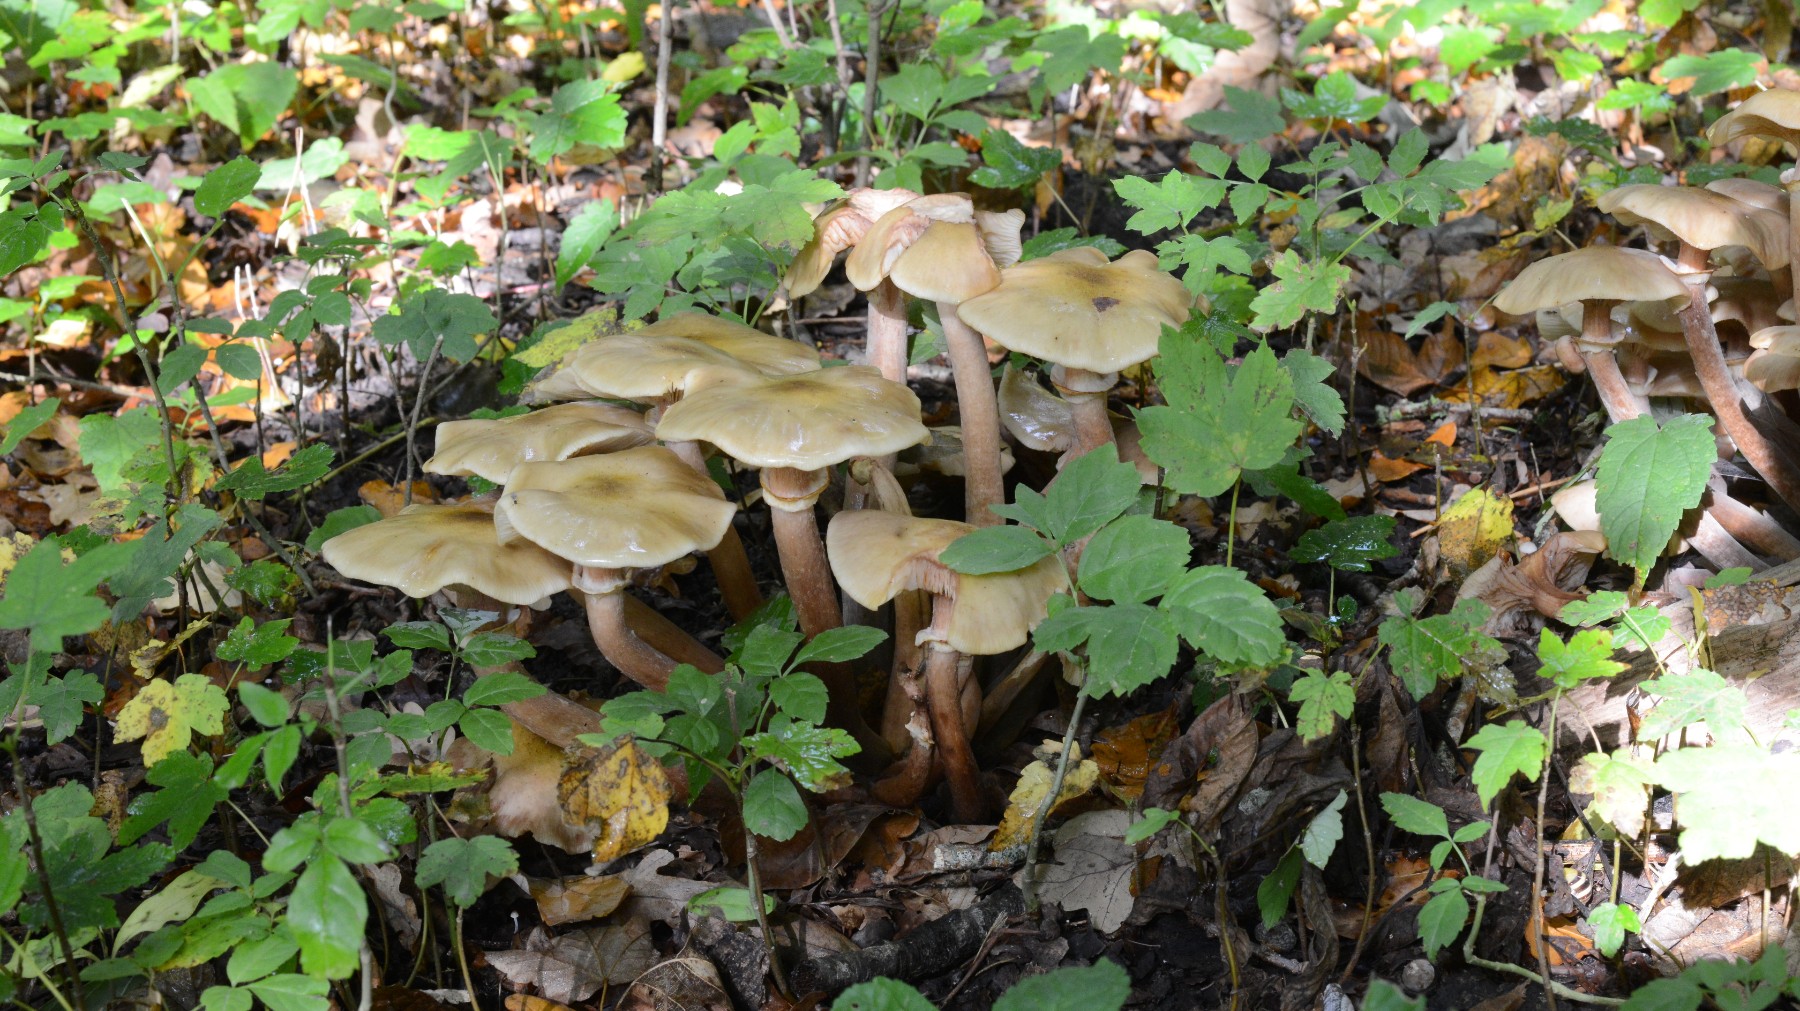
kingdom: Fungi
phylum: Basidiomycota
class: Agaricomycetes
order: Agaricales
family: Physalacriaceae
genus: Armillaria
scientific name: Armillaria mellea
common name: ægte honningsvamp
